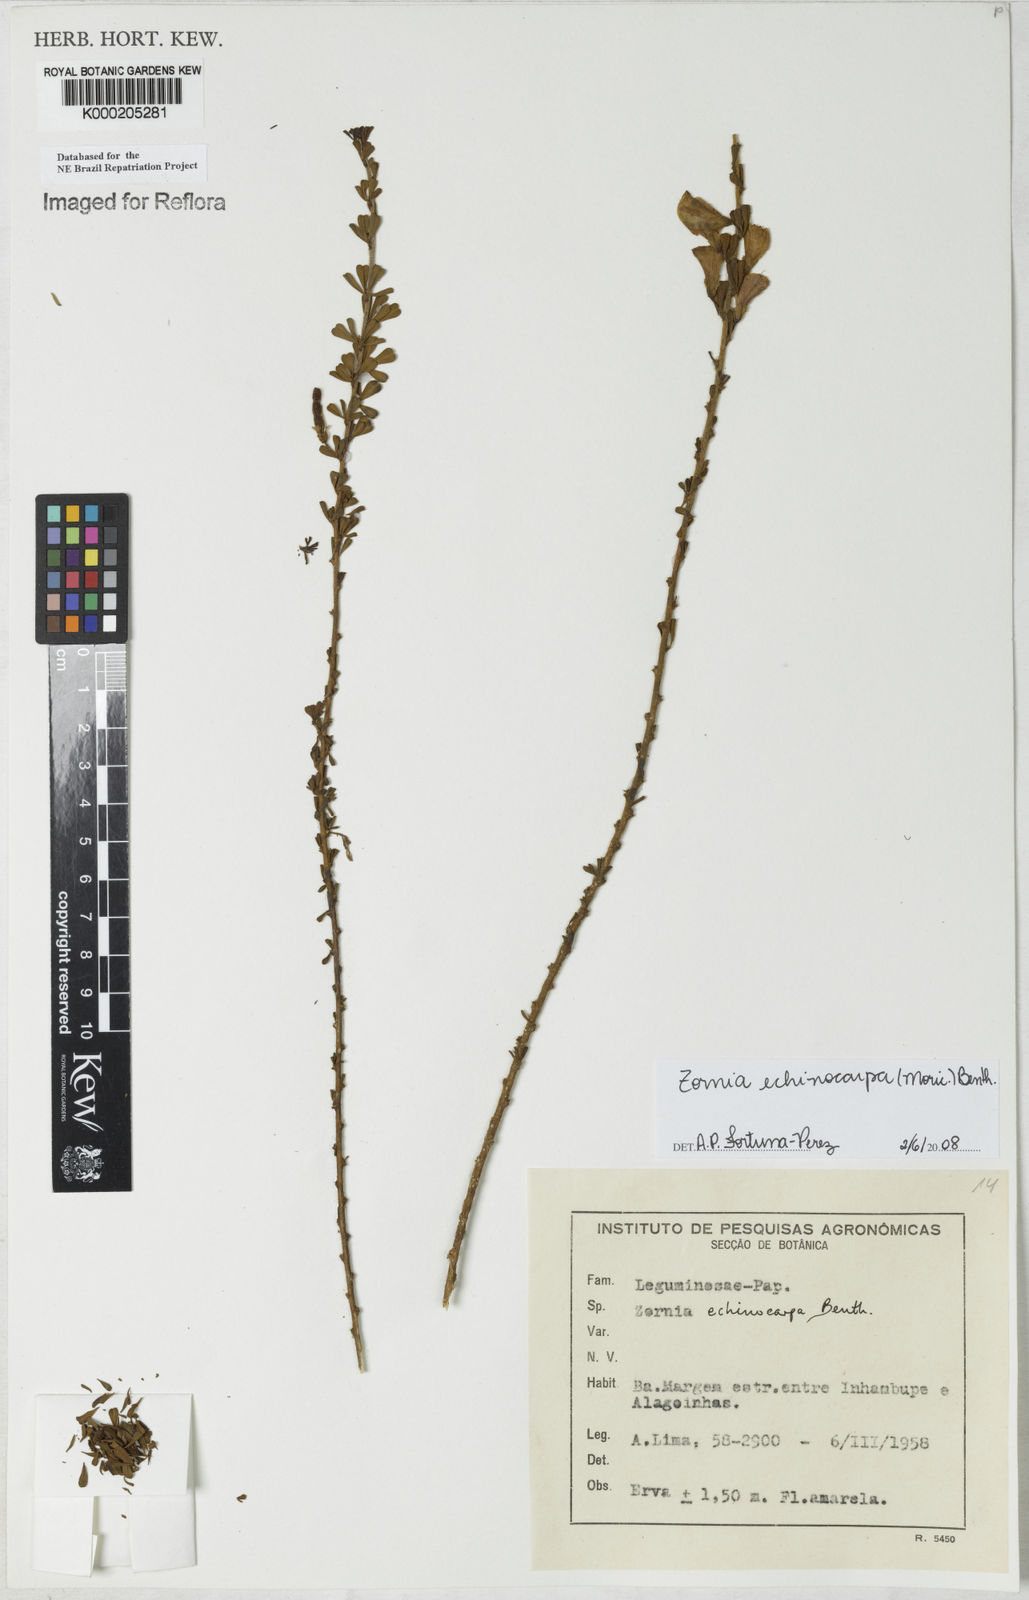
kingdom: Plantae
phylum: Tracheophyta
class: Magnoliopsida
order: Fabales
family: Fabaceae
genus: Zornia
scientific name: Zornia echinocarpa
